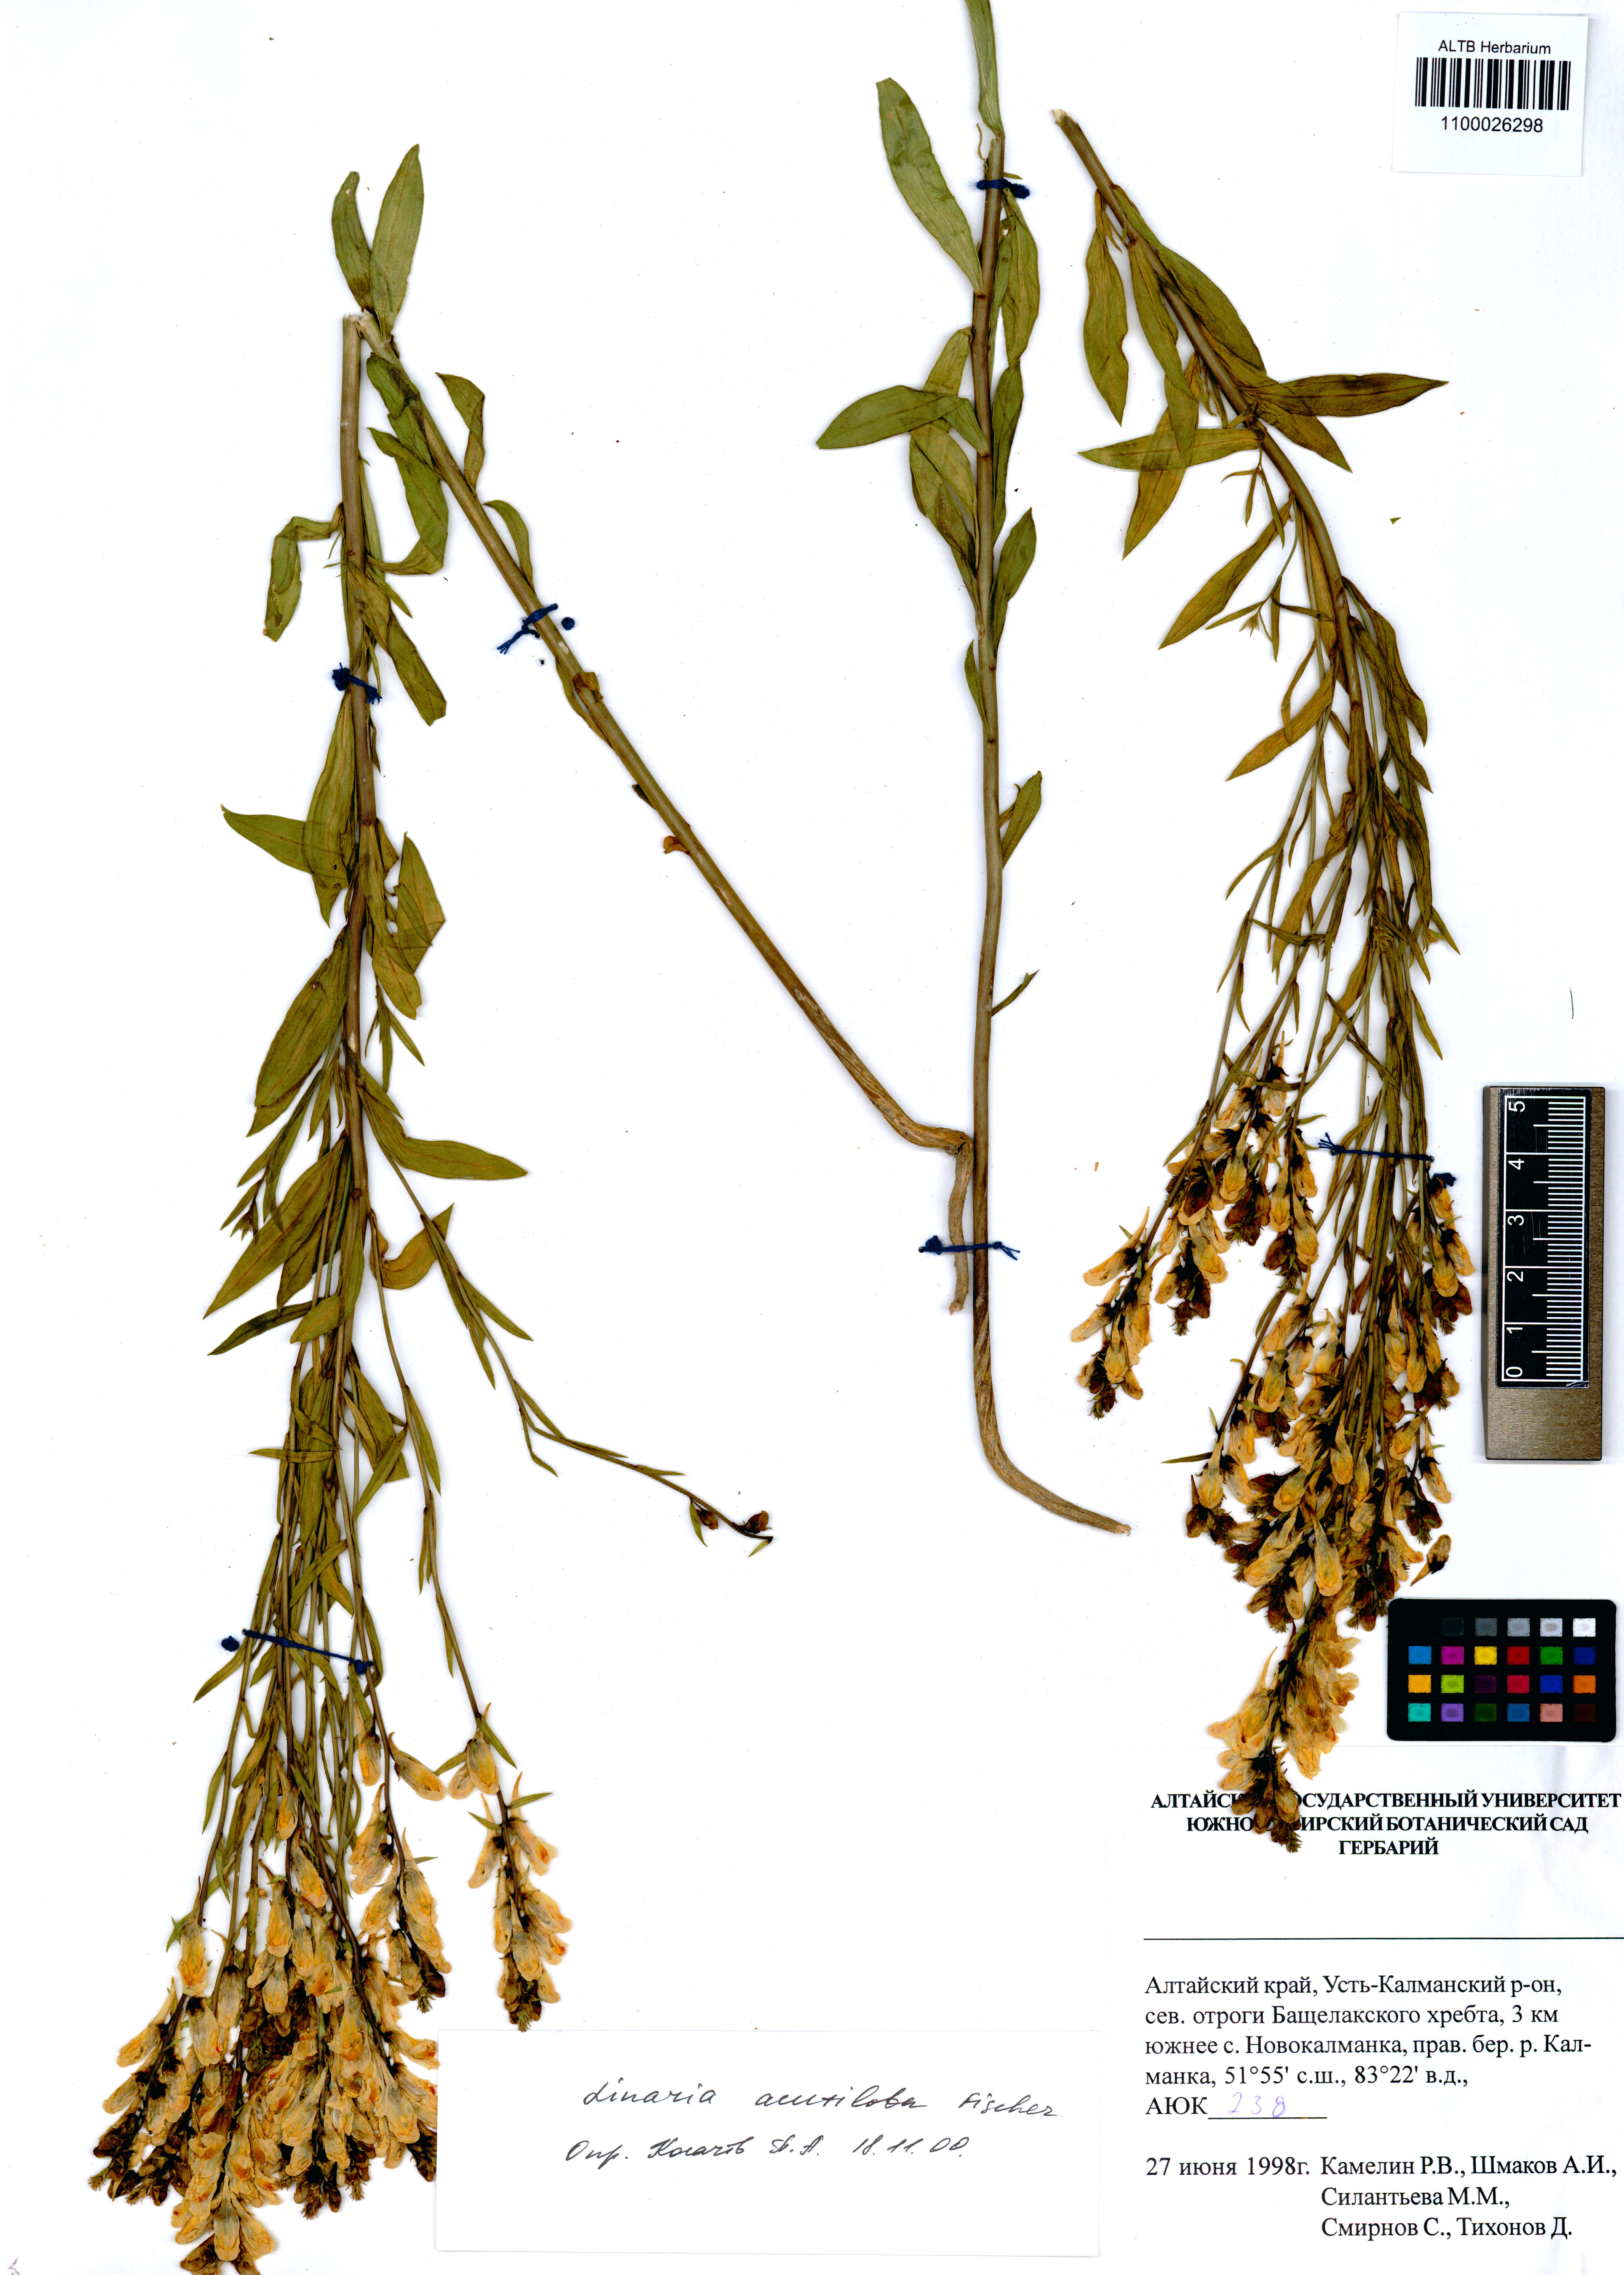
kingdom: Plantae
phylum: Tracheophyta
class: Magnoliopsida
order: Lamiales
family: Plantaginaceae
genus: Linaria
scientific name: Linaria acutiloba
